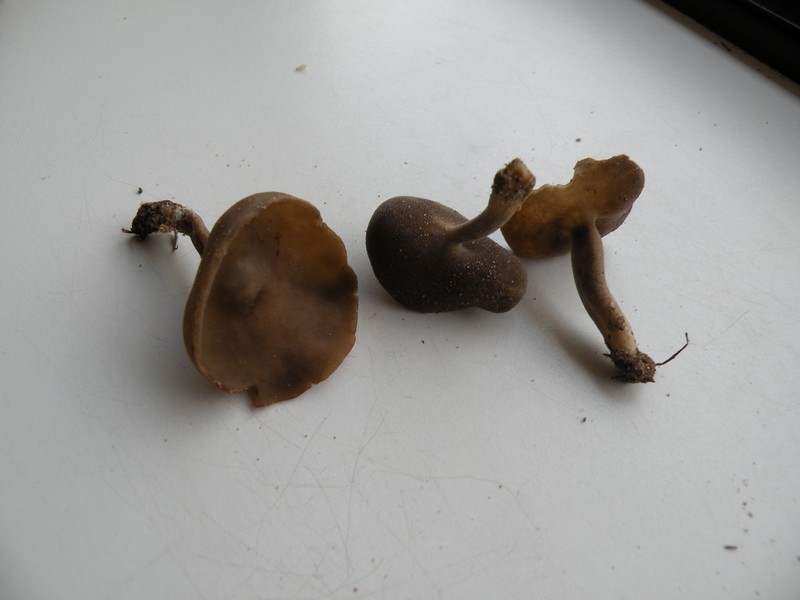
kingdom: Fungi
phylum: Ascomycota
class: Pezizomycetes
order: Pezizales
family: Helvellaceae
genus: Helvella
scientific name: Helvella fibrosa
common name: dunstokket foldhat
